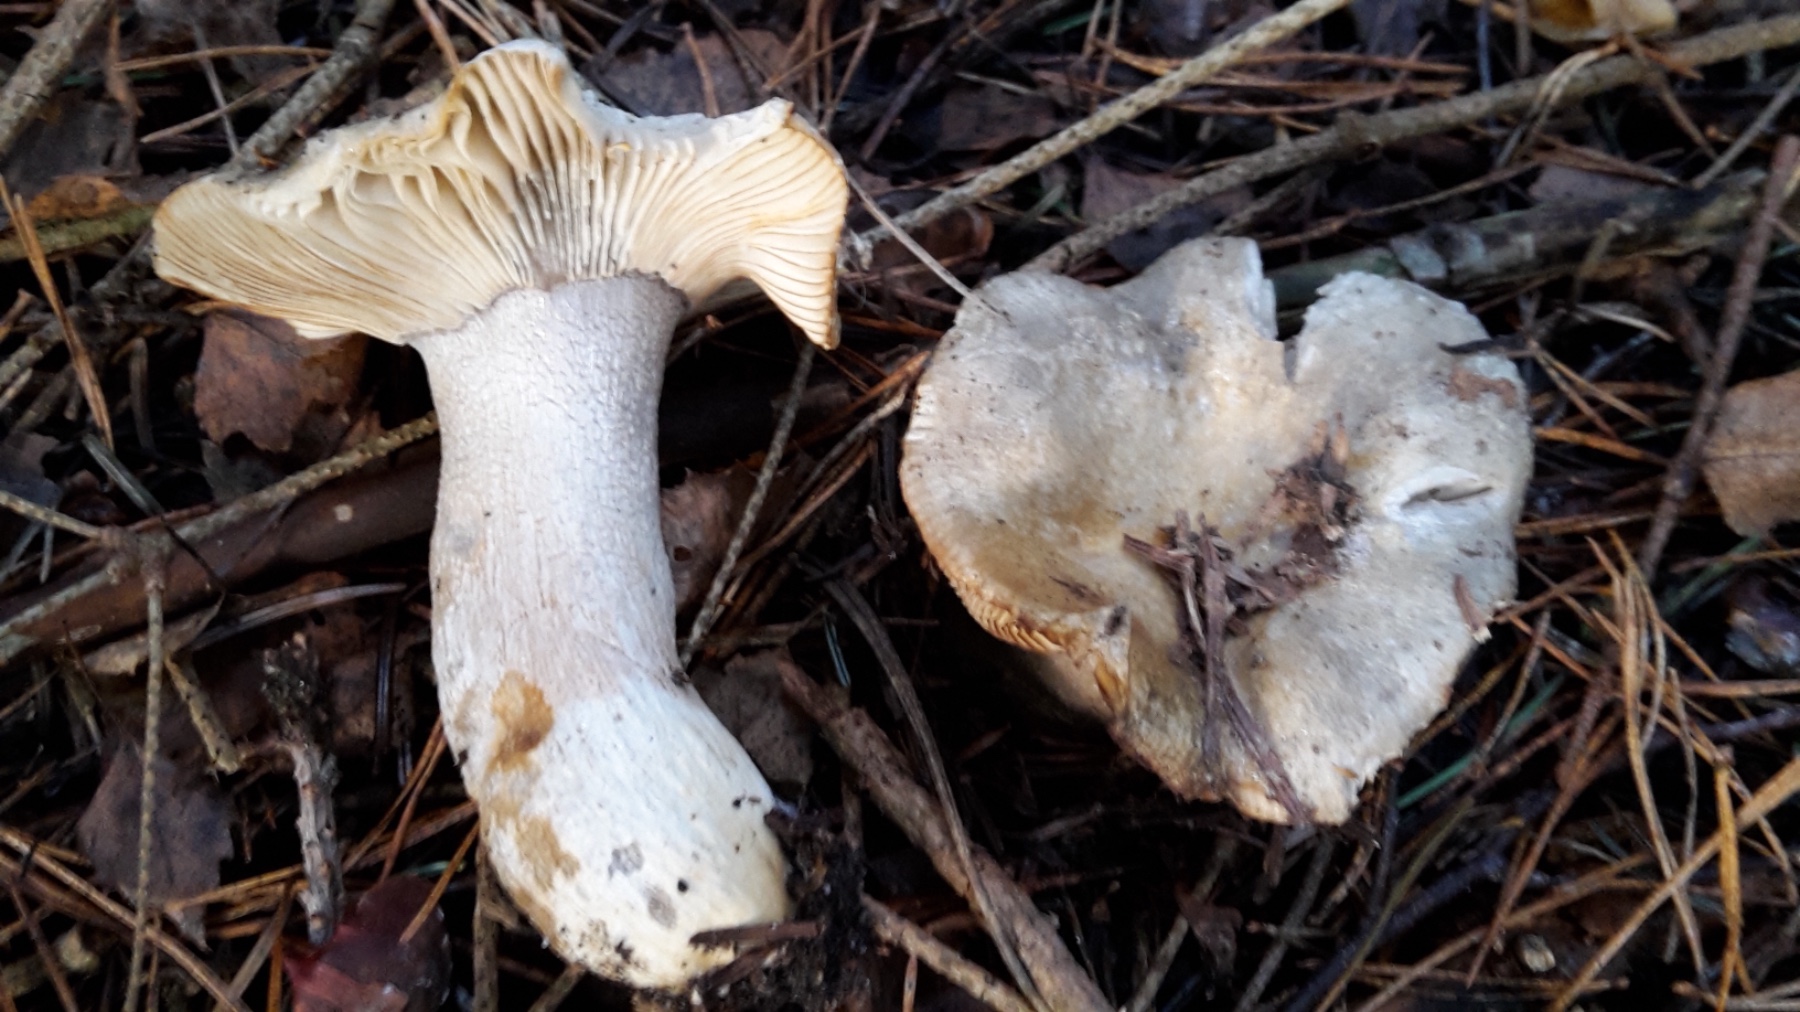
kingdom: Fungi
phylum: Basidiomycota
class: Agaricomycetes
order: Russulales
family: Russulaceae
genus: Russula
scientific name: Russula ochroleuca
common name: okkergul skørhat
